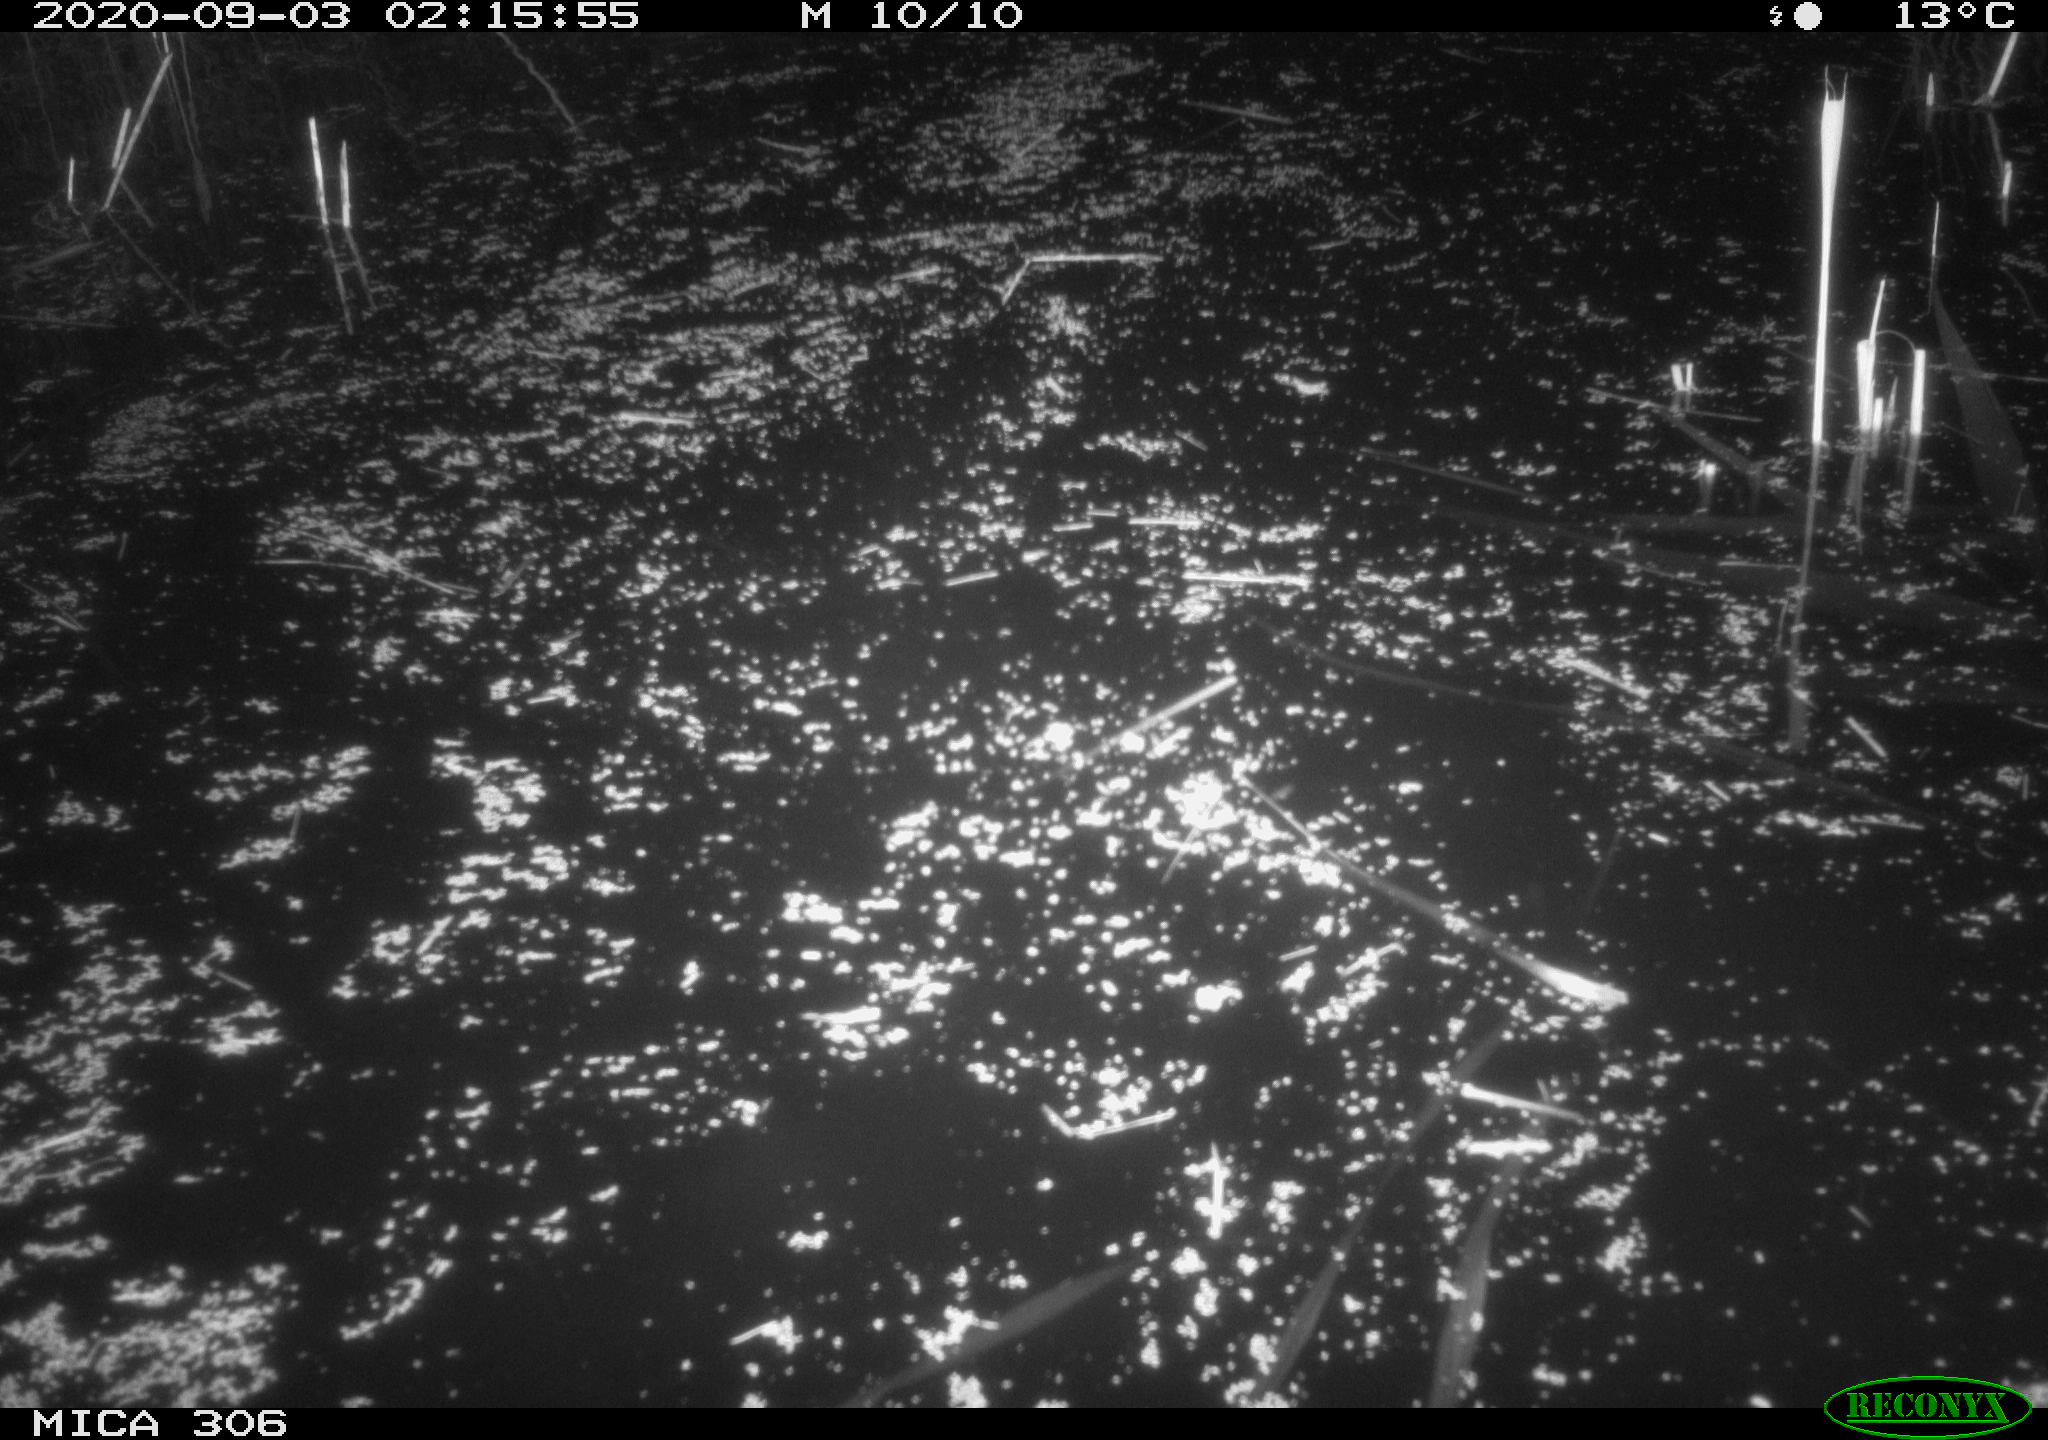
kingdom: Animalia
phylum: Chordata
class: Mammalia
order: Rodentia
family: Muridae
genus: Rattus
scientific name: Rattus norvegicus
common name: Brown rat
